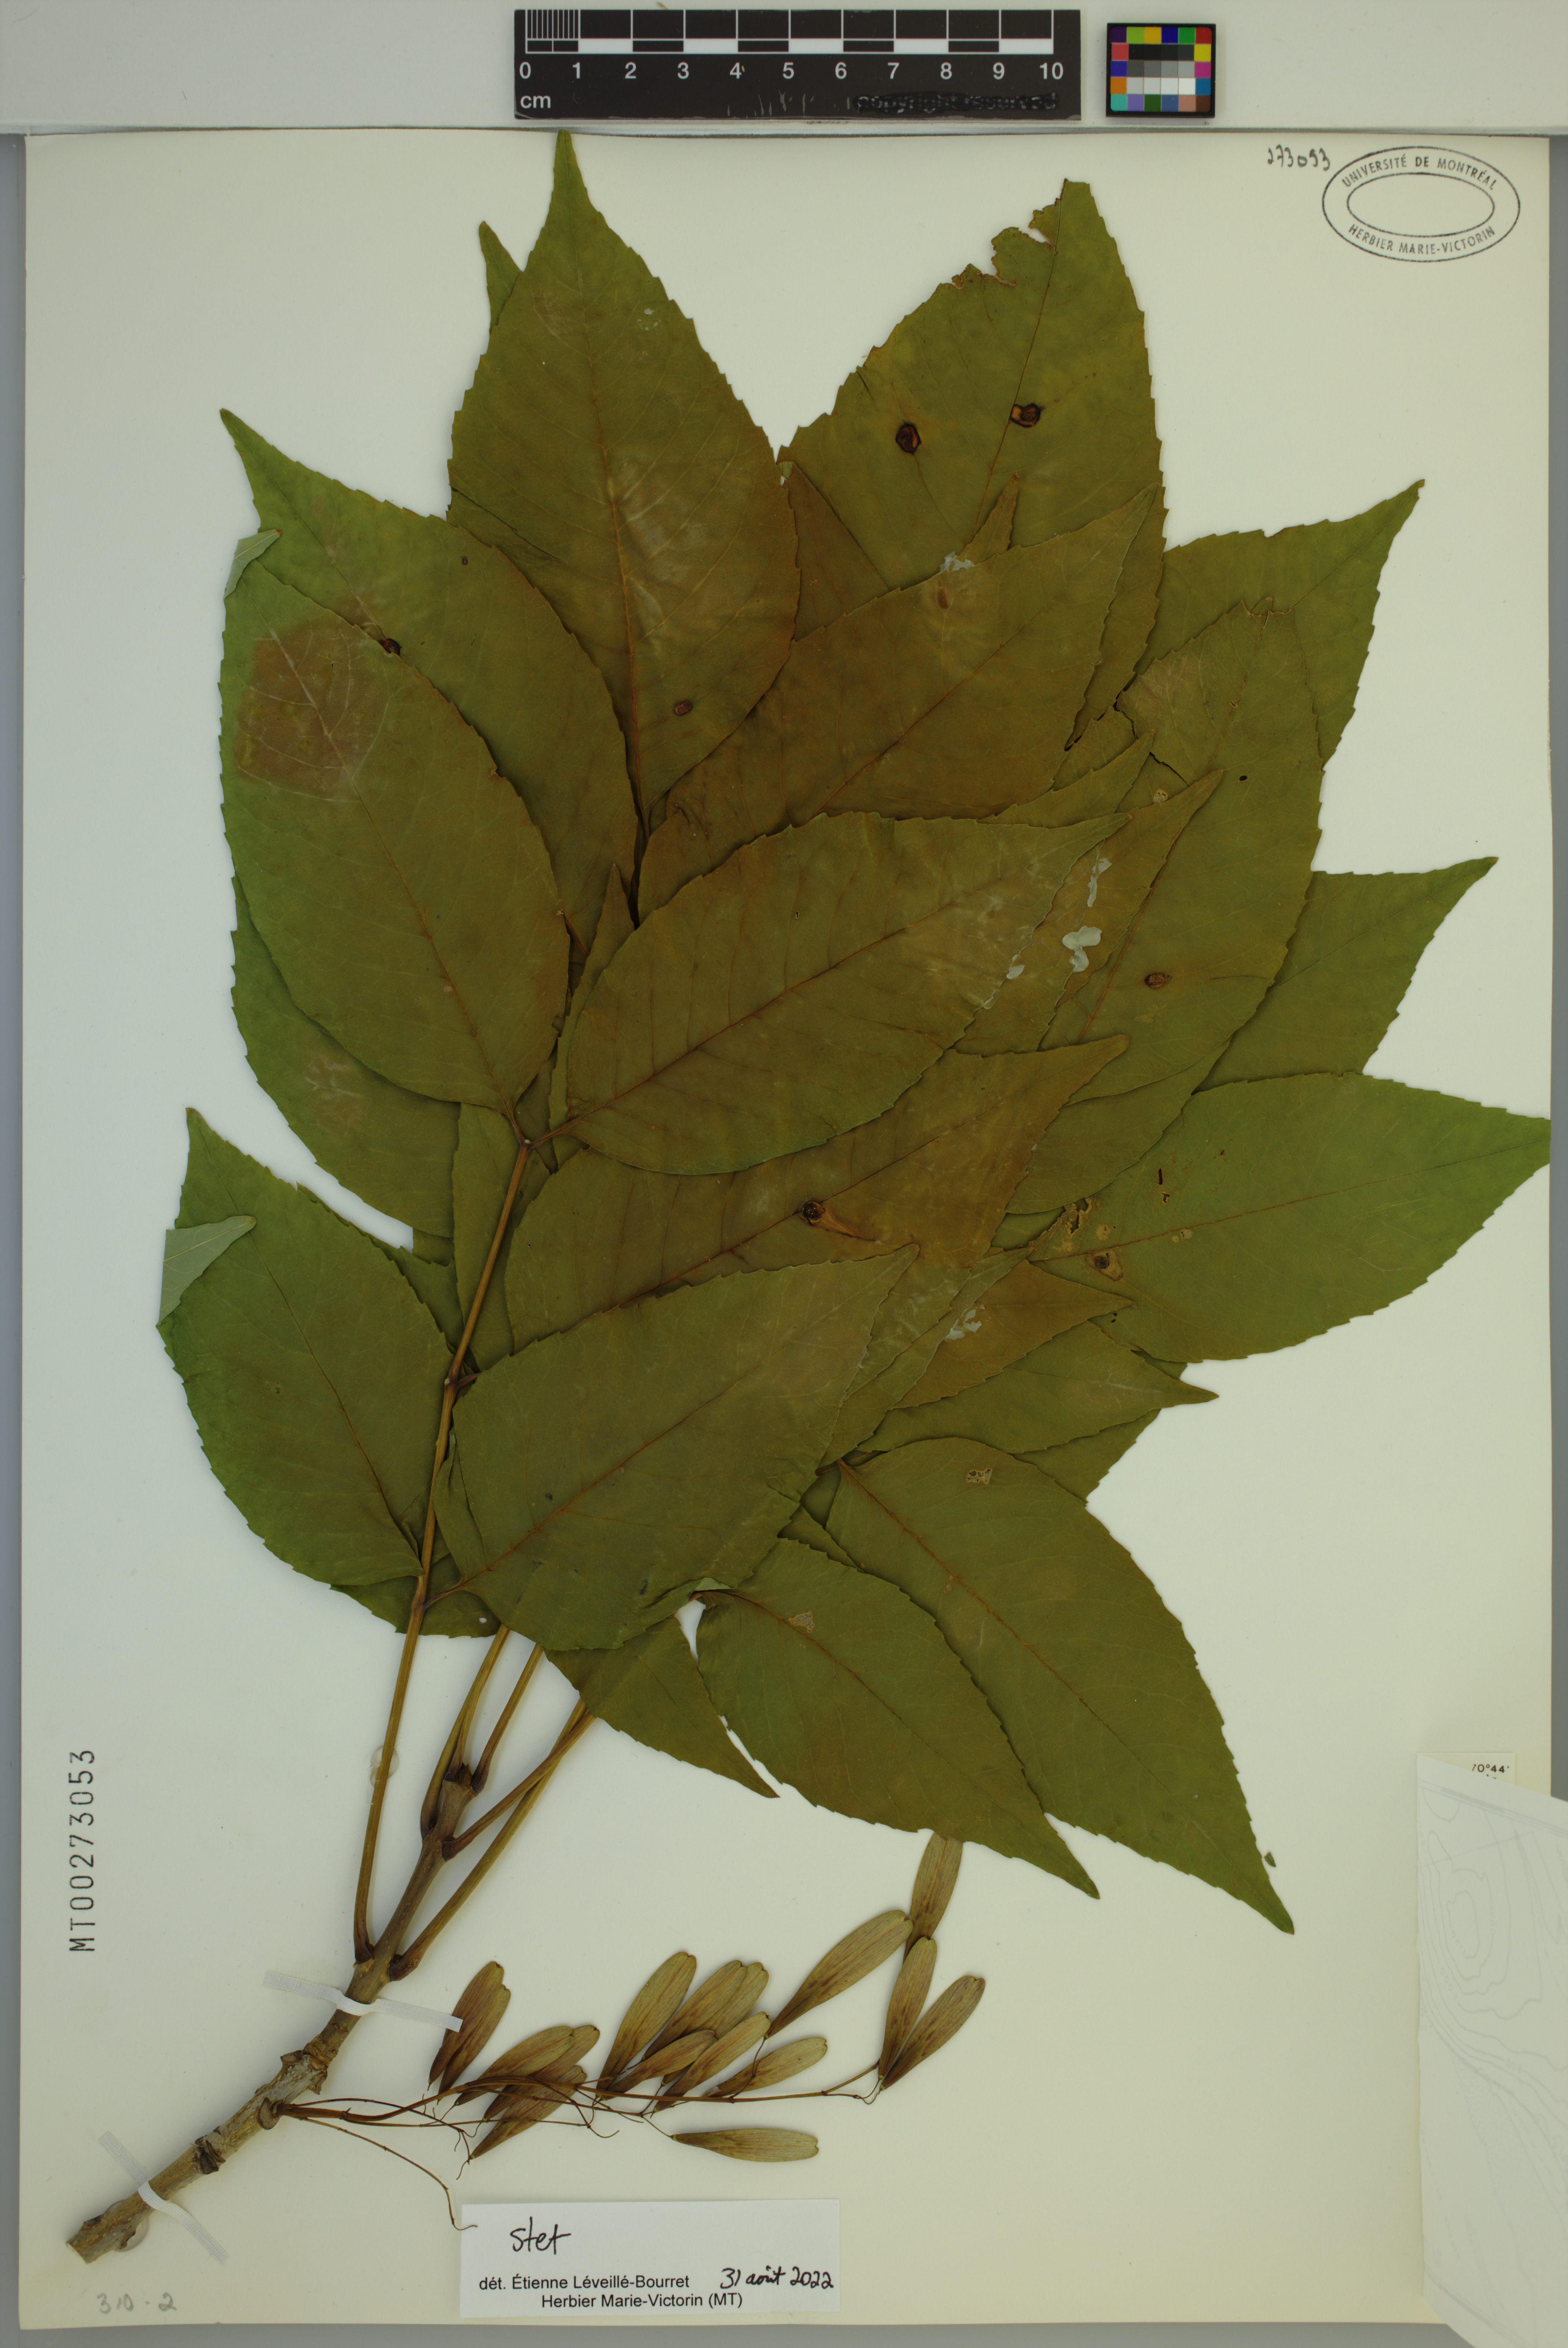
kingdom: Plantae
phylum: Tracheophyta
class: Magnoliopsida
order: Lamiales
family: Oleaceae
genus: Fraxinus
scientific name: Fraxinus americana
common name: White ash
